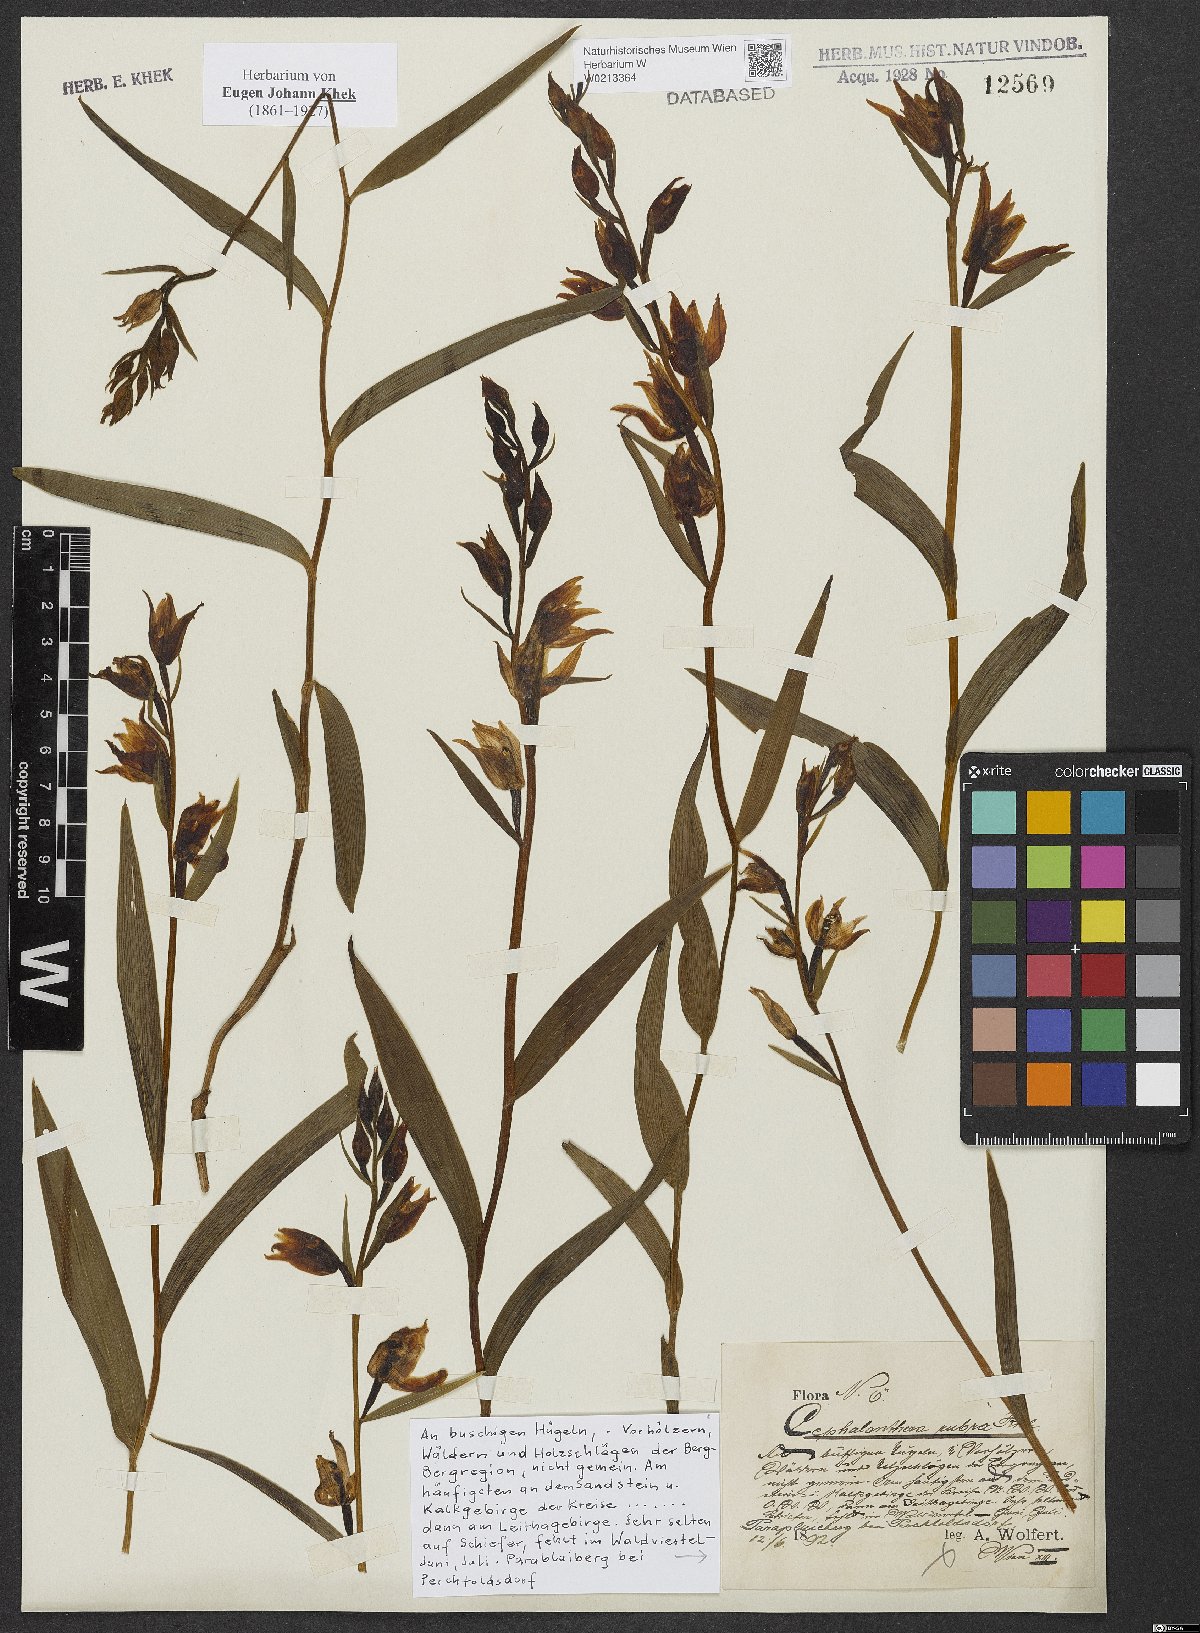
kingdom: Plantae
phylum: Tracheophyta
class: Liliopsida
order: Asparagales
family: Orchidaceae
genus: Cephalanthera
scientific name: Cephalanthera rubra
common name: Red helleborine
